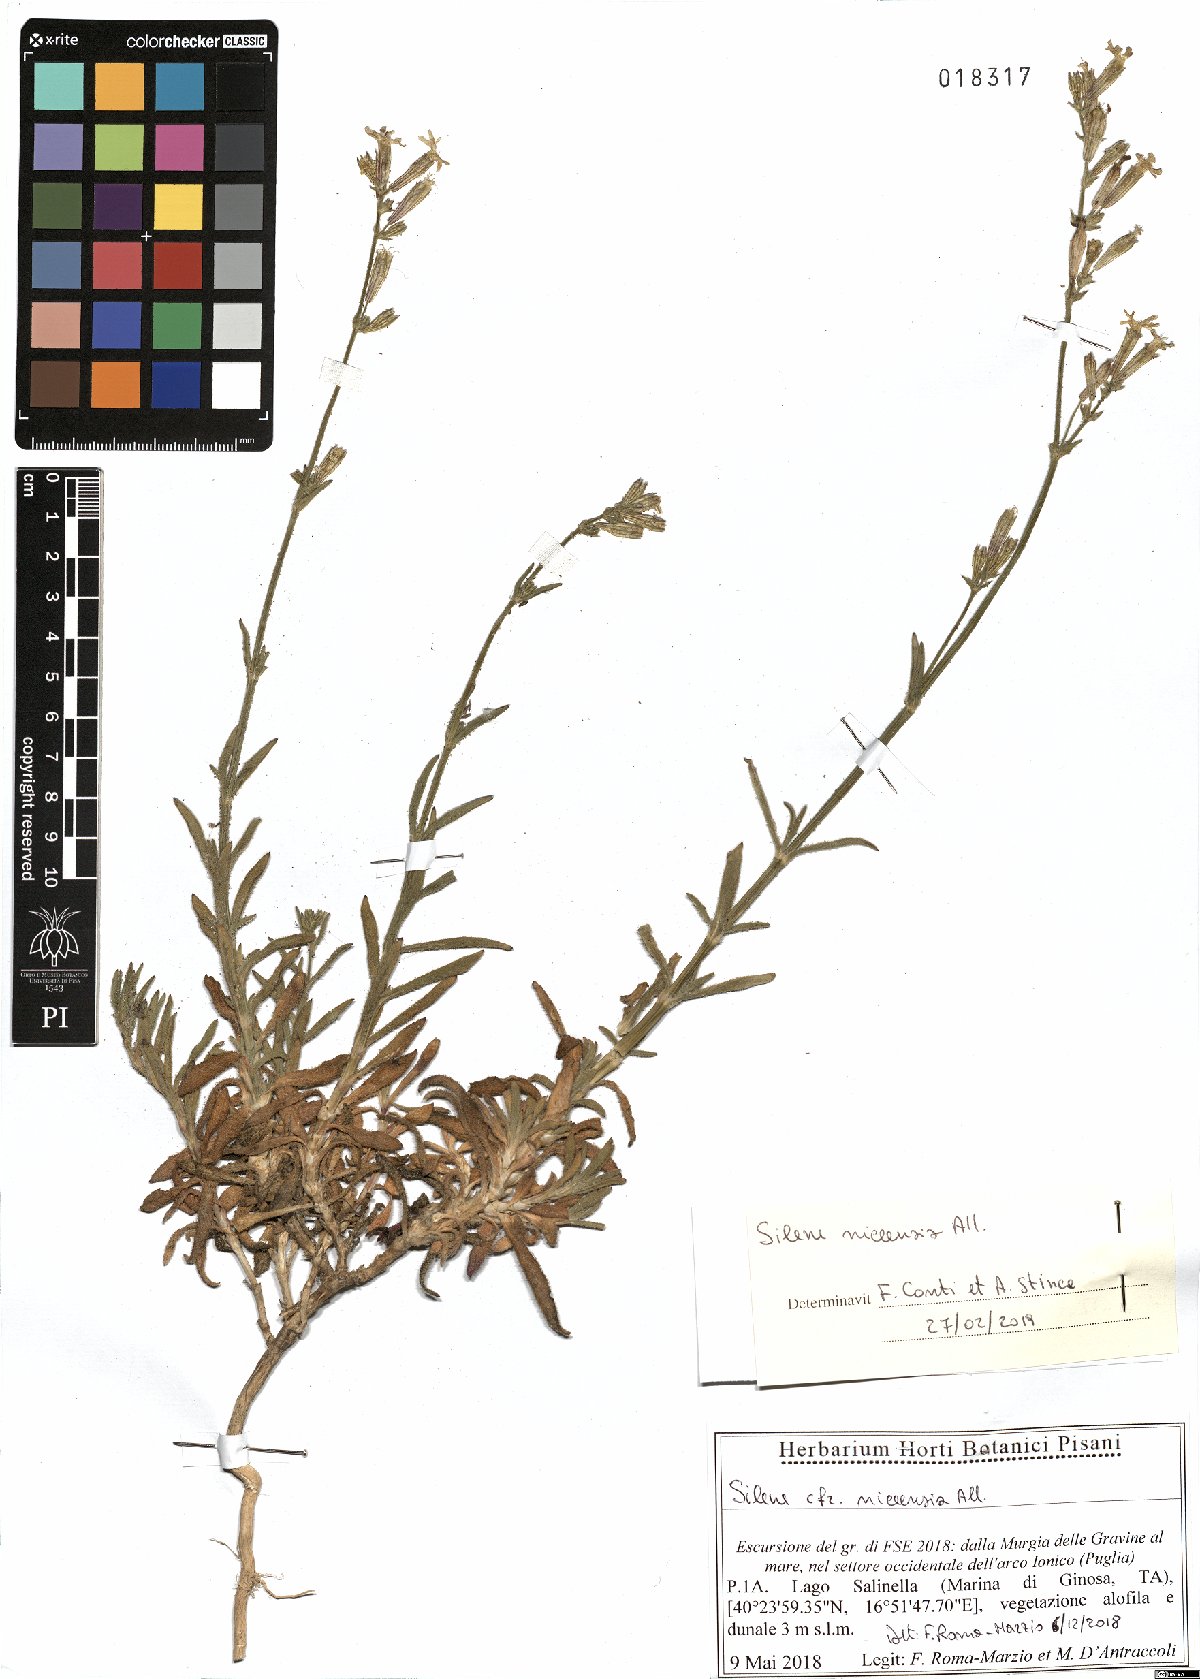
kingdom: Plantae
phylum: Tracheophyta
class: Magnoliopsida
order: Caryophyllales
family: Caryophyllaceae
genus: Silene
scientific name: Silene nicaeensis
